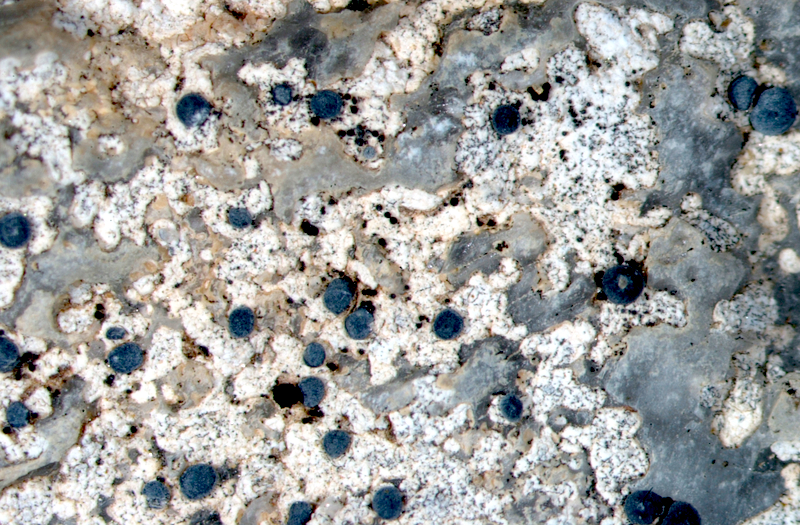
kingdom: Fungi
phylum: Ascomycota
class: Lecanoromycetes
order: Caliciales
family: Caliciaceae
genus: Buellia
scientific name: Buellia
